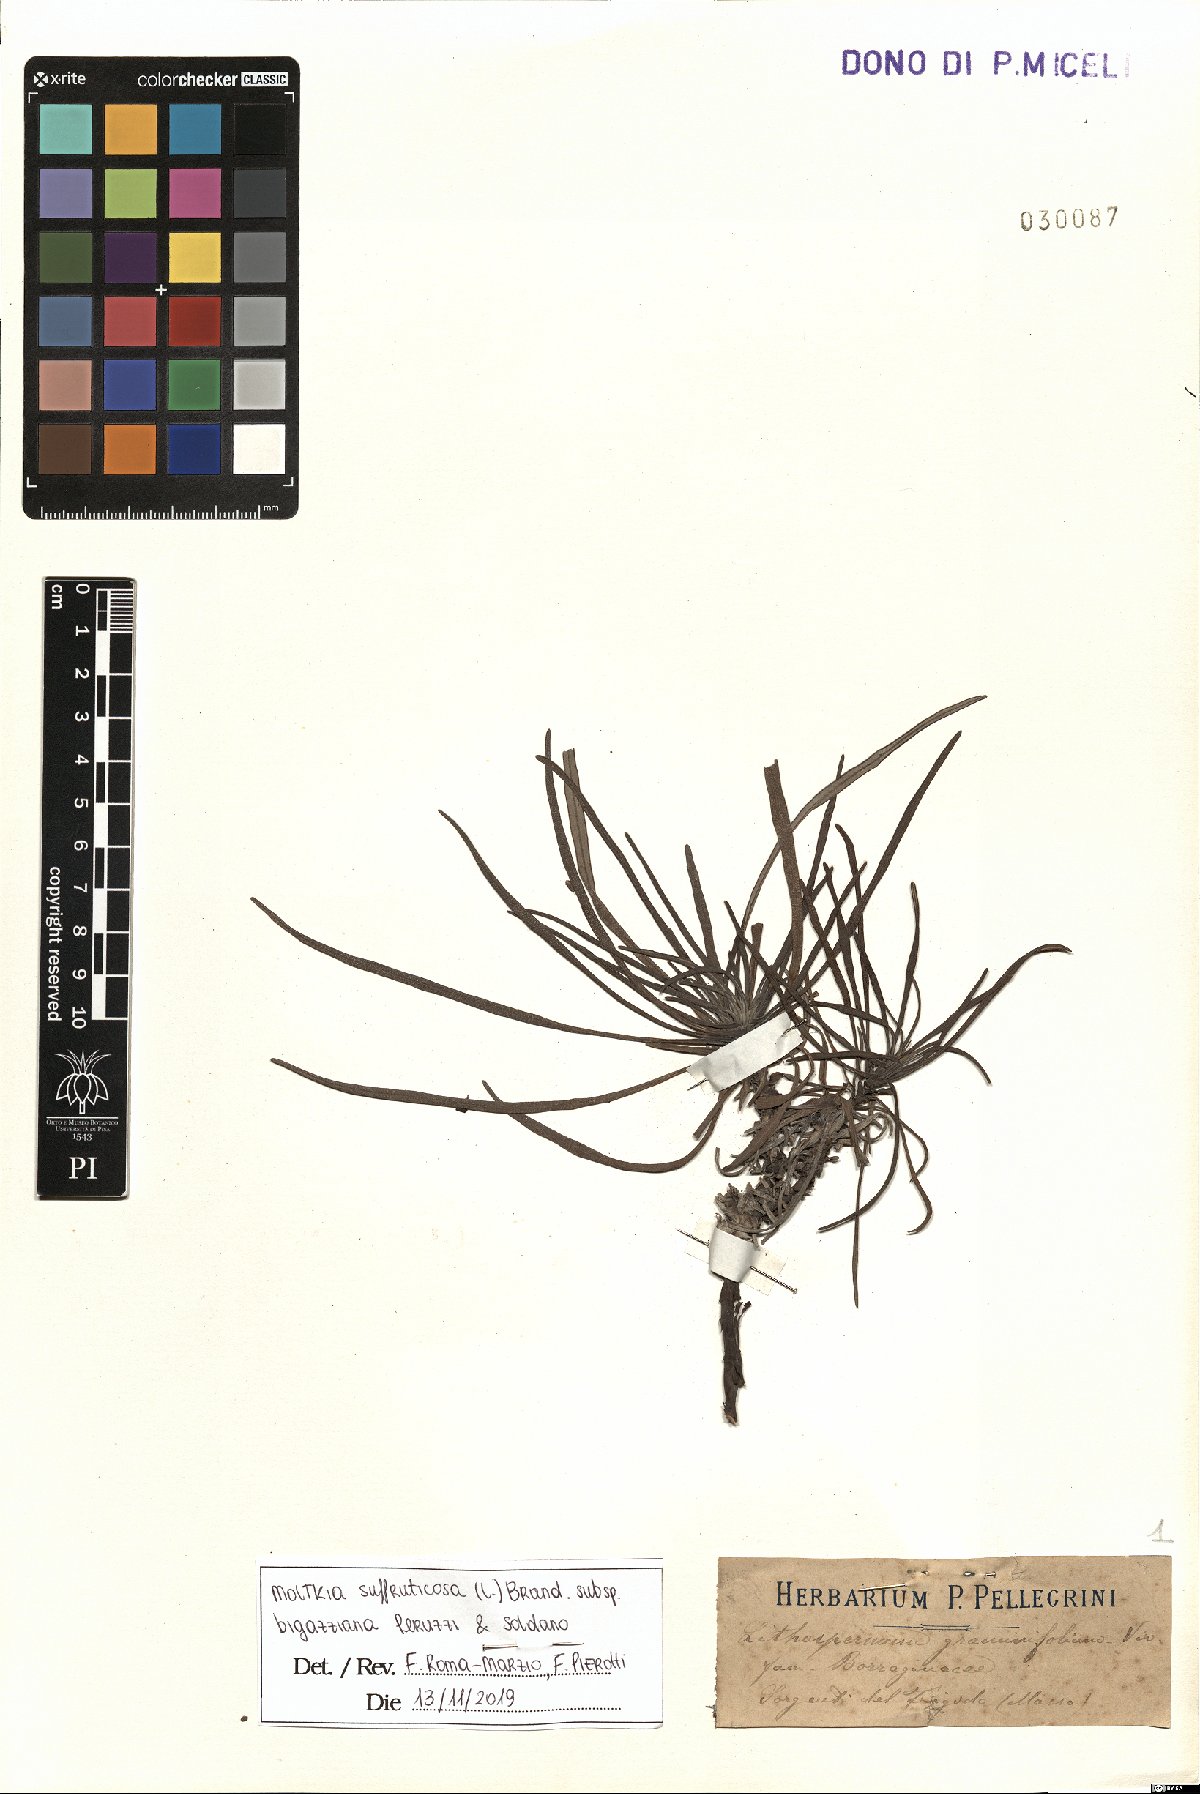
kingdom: Plantae
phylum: Tracheophyta
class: Magnoliopsida
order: Boraginales
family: Boraginaceae
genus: Moltkia
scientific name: Moltkia suffruticosa
